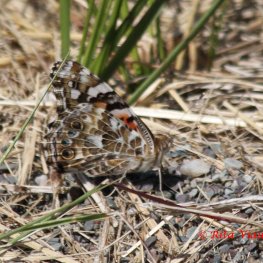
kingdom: Animalia
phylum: Arthropoda
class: Insecta
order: Lepidoptera
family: Nymphalidae
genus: Vanessa
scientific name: Vanessa cardui
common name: Painted Lady
